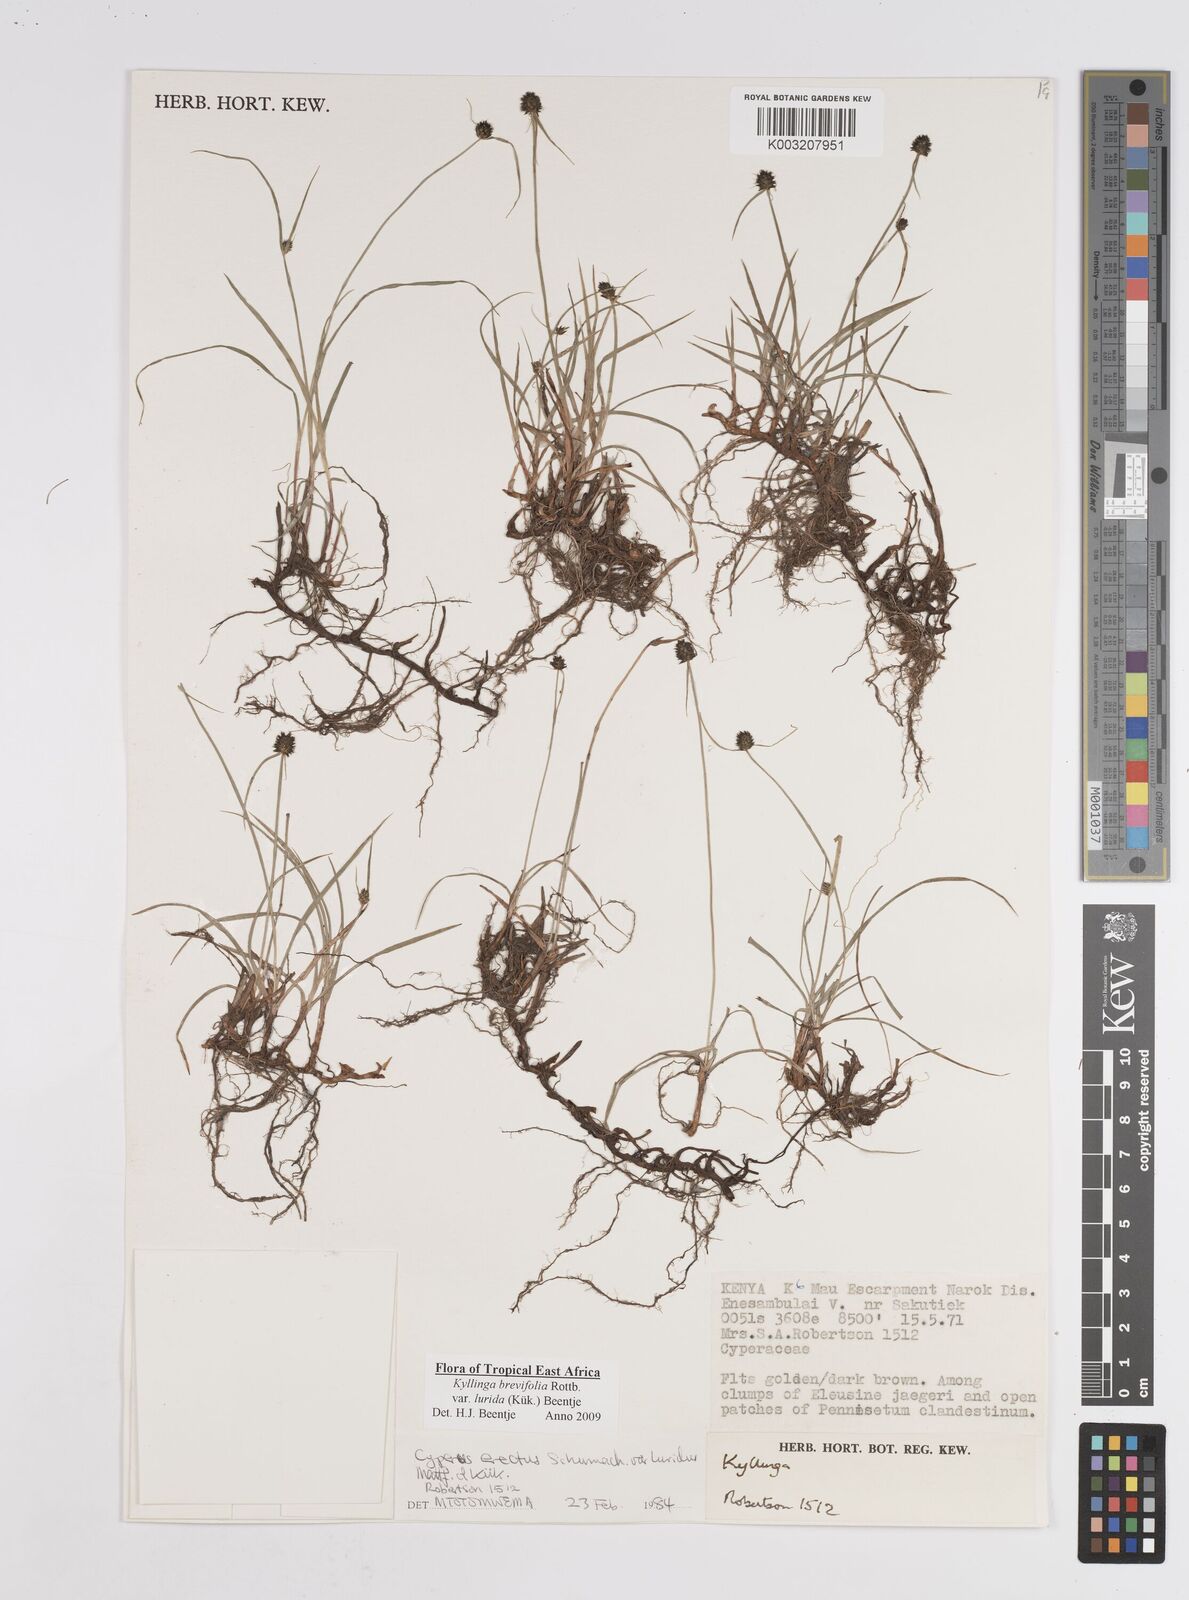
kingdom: Plantae
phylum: Tracheophyta
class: Liliopsida
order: Poales
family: Cyperaceae
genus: Cyperus
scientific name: Cyperus erectus
